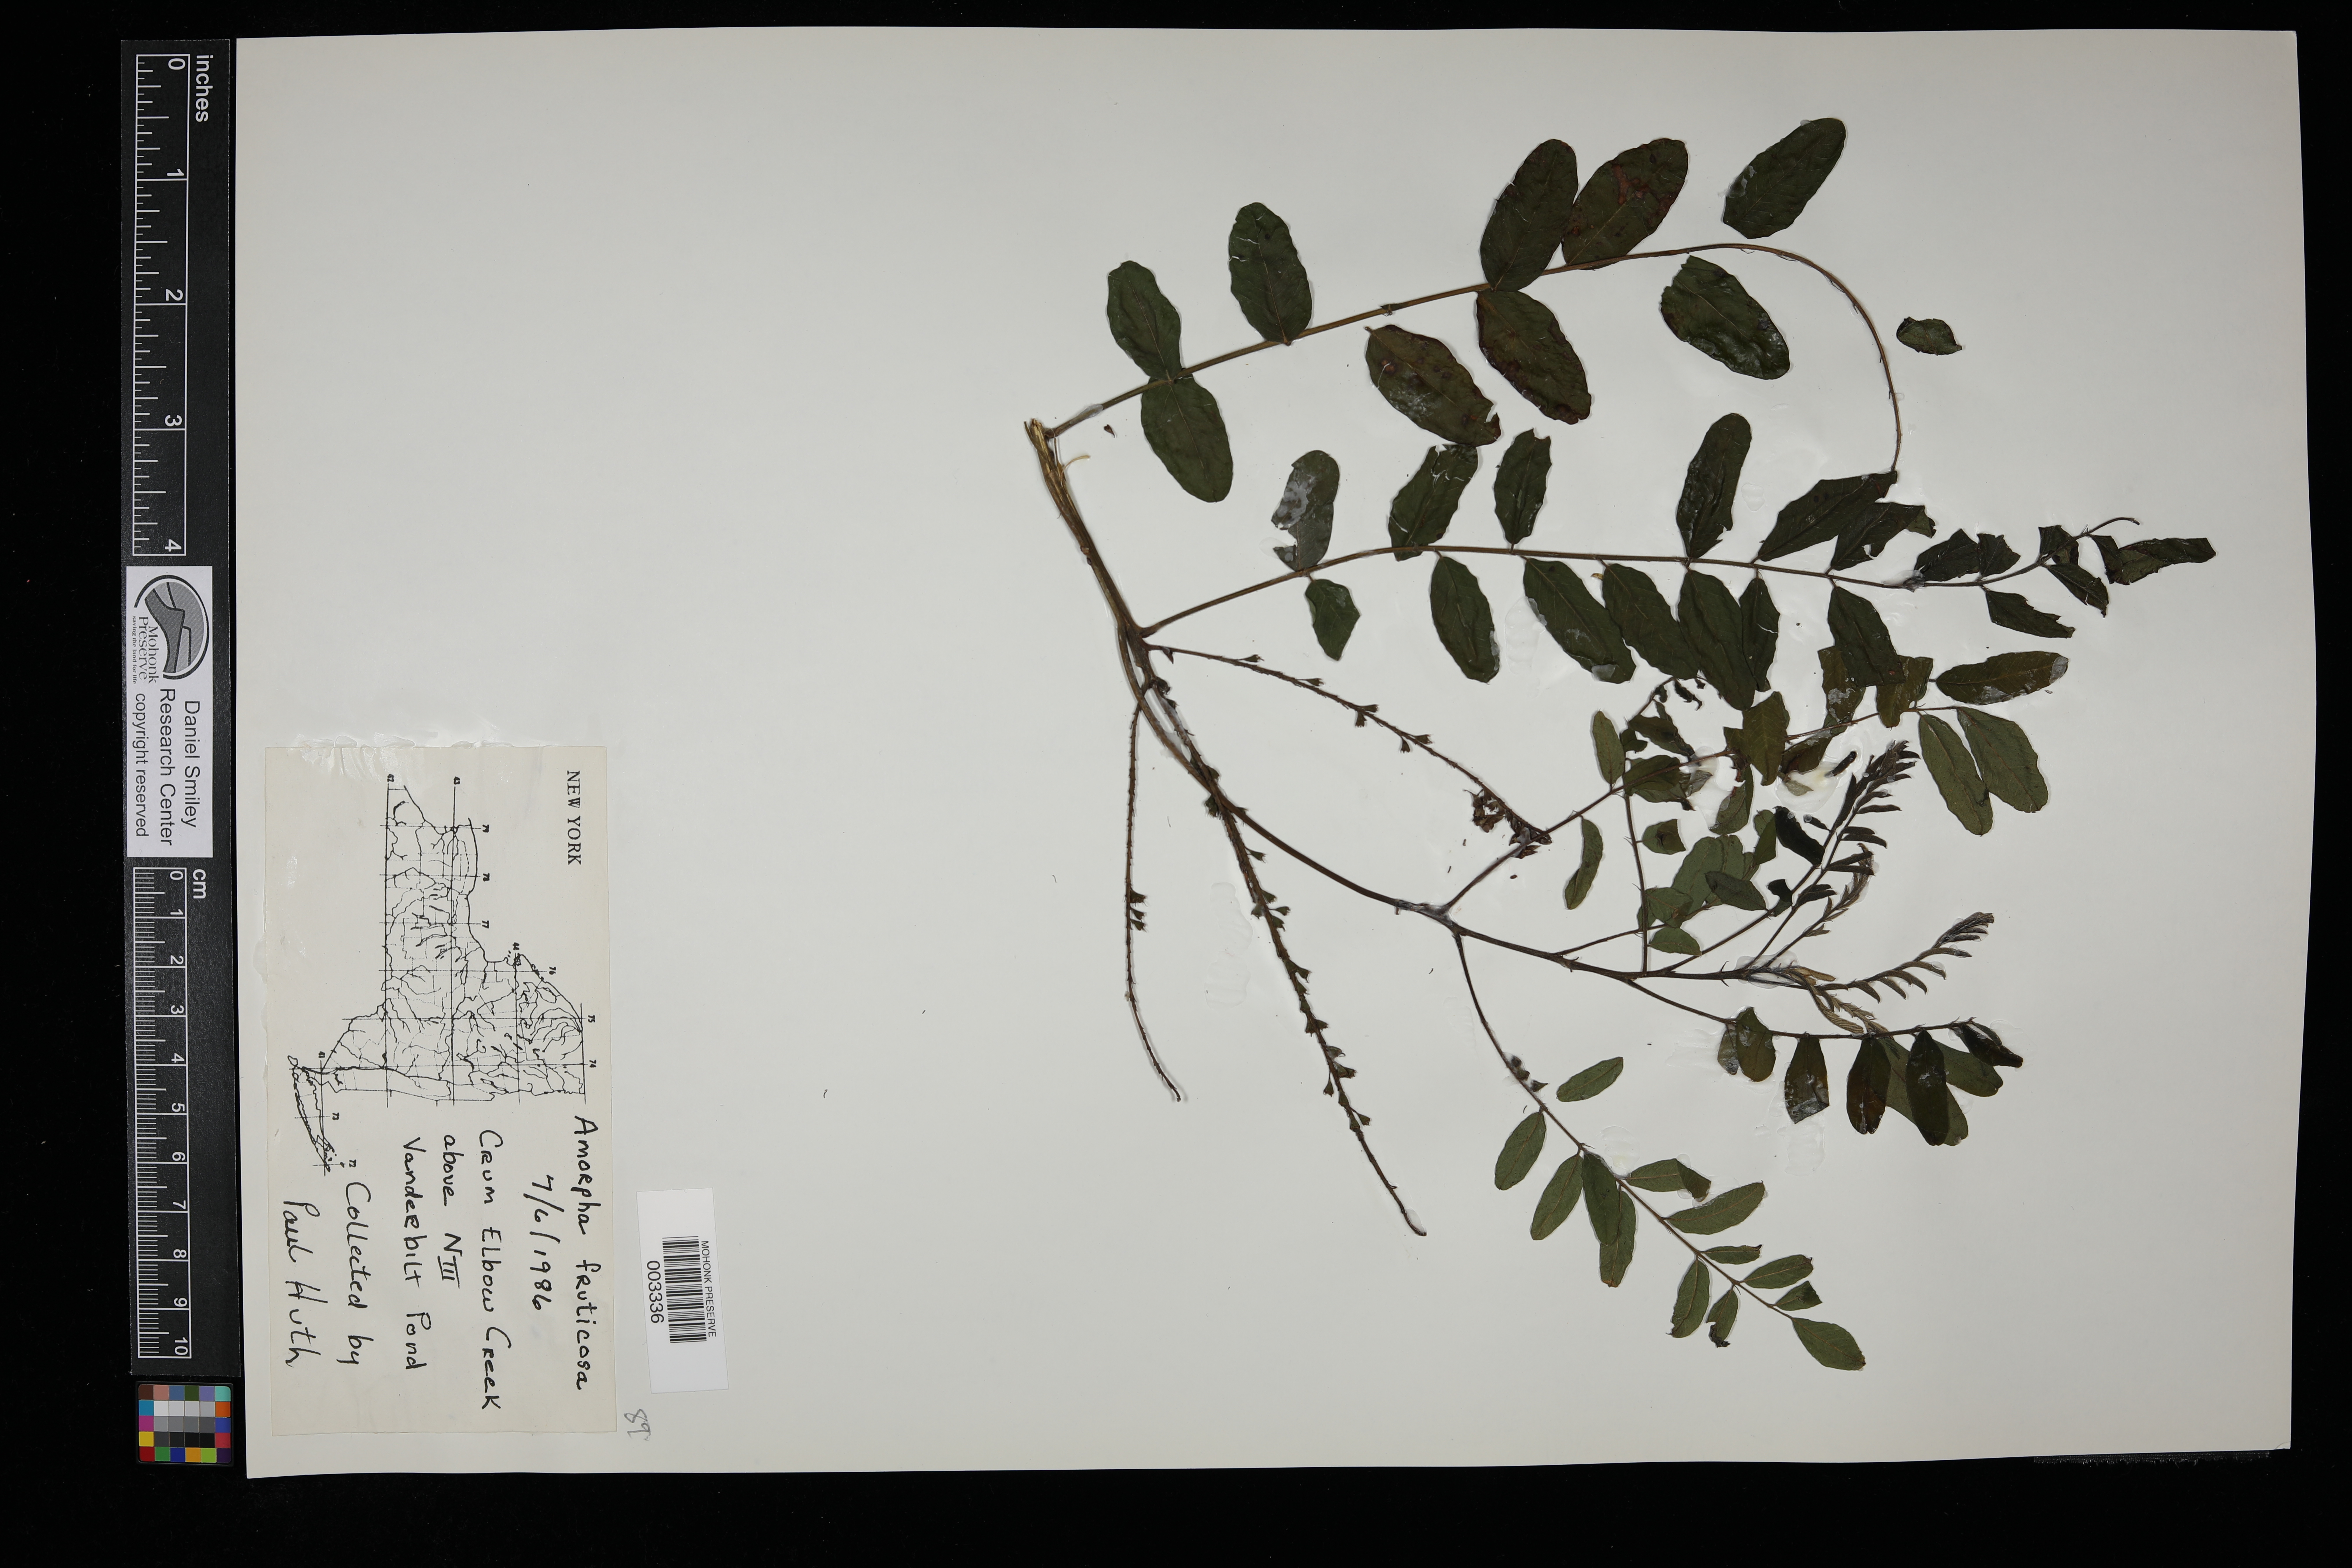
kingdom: Plantae
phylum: Tracheophyta
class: Magnoliopsida
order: Fabales
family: Fabaceae
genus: Amorpha
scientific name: Amorpha fruticosa
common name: False indigo
